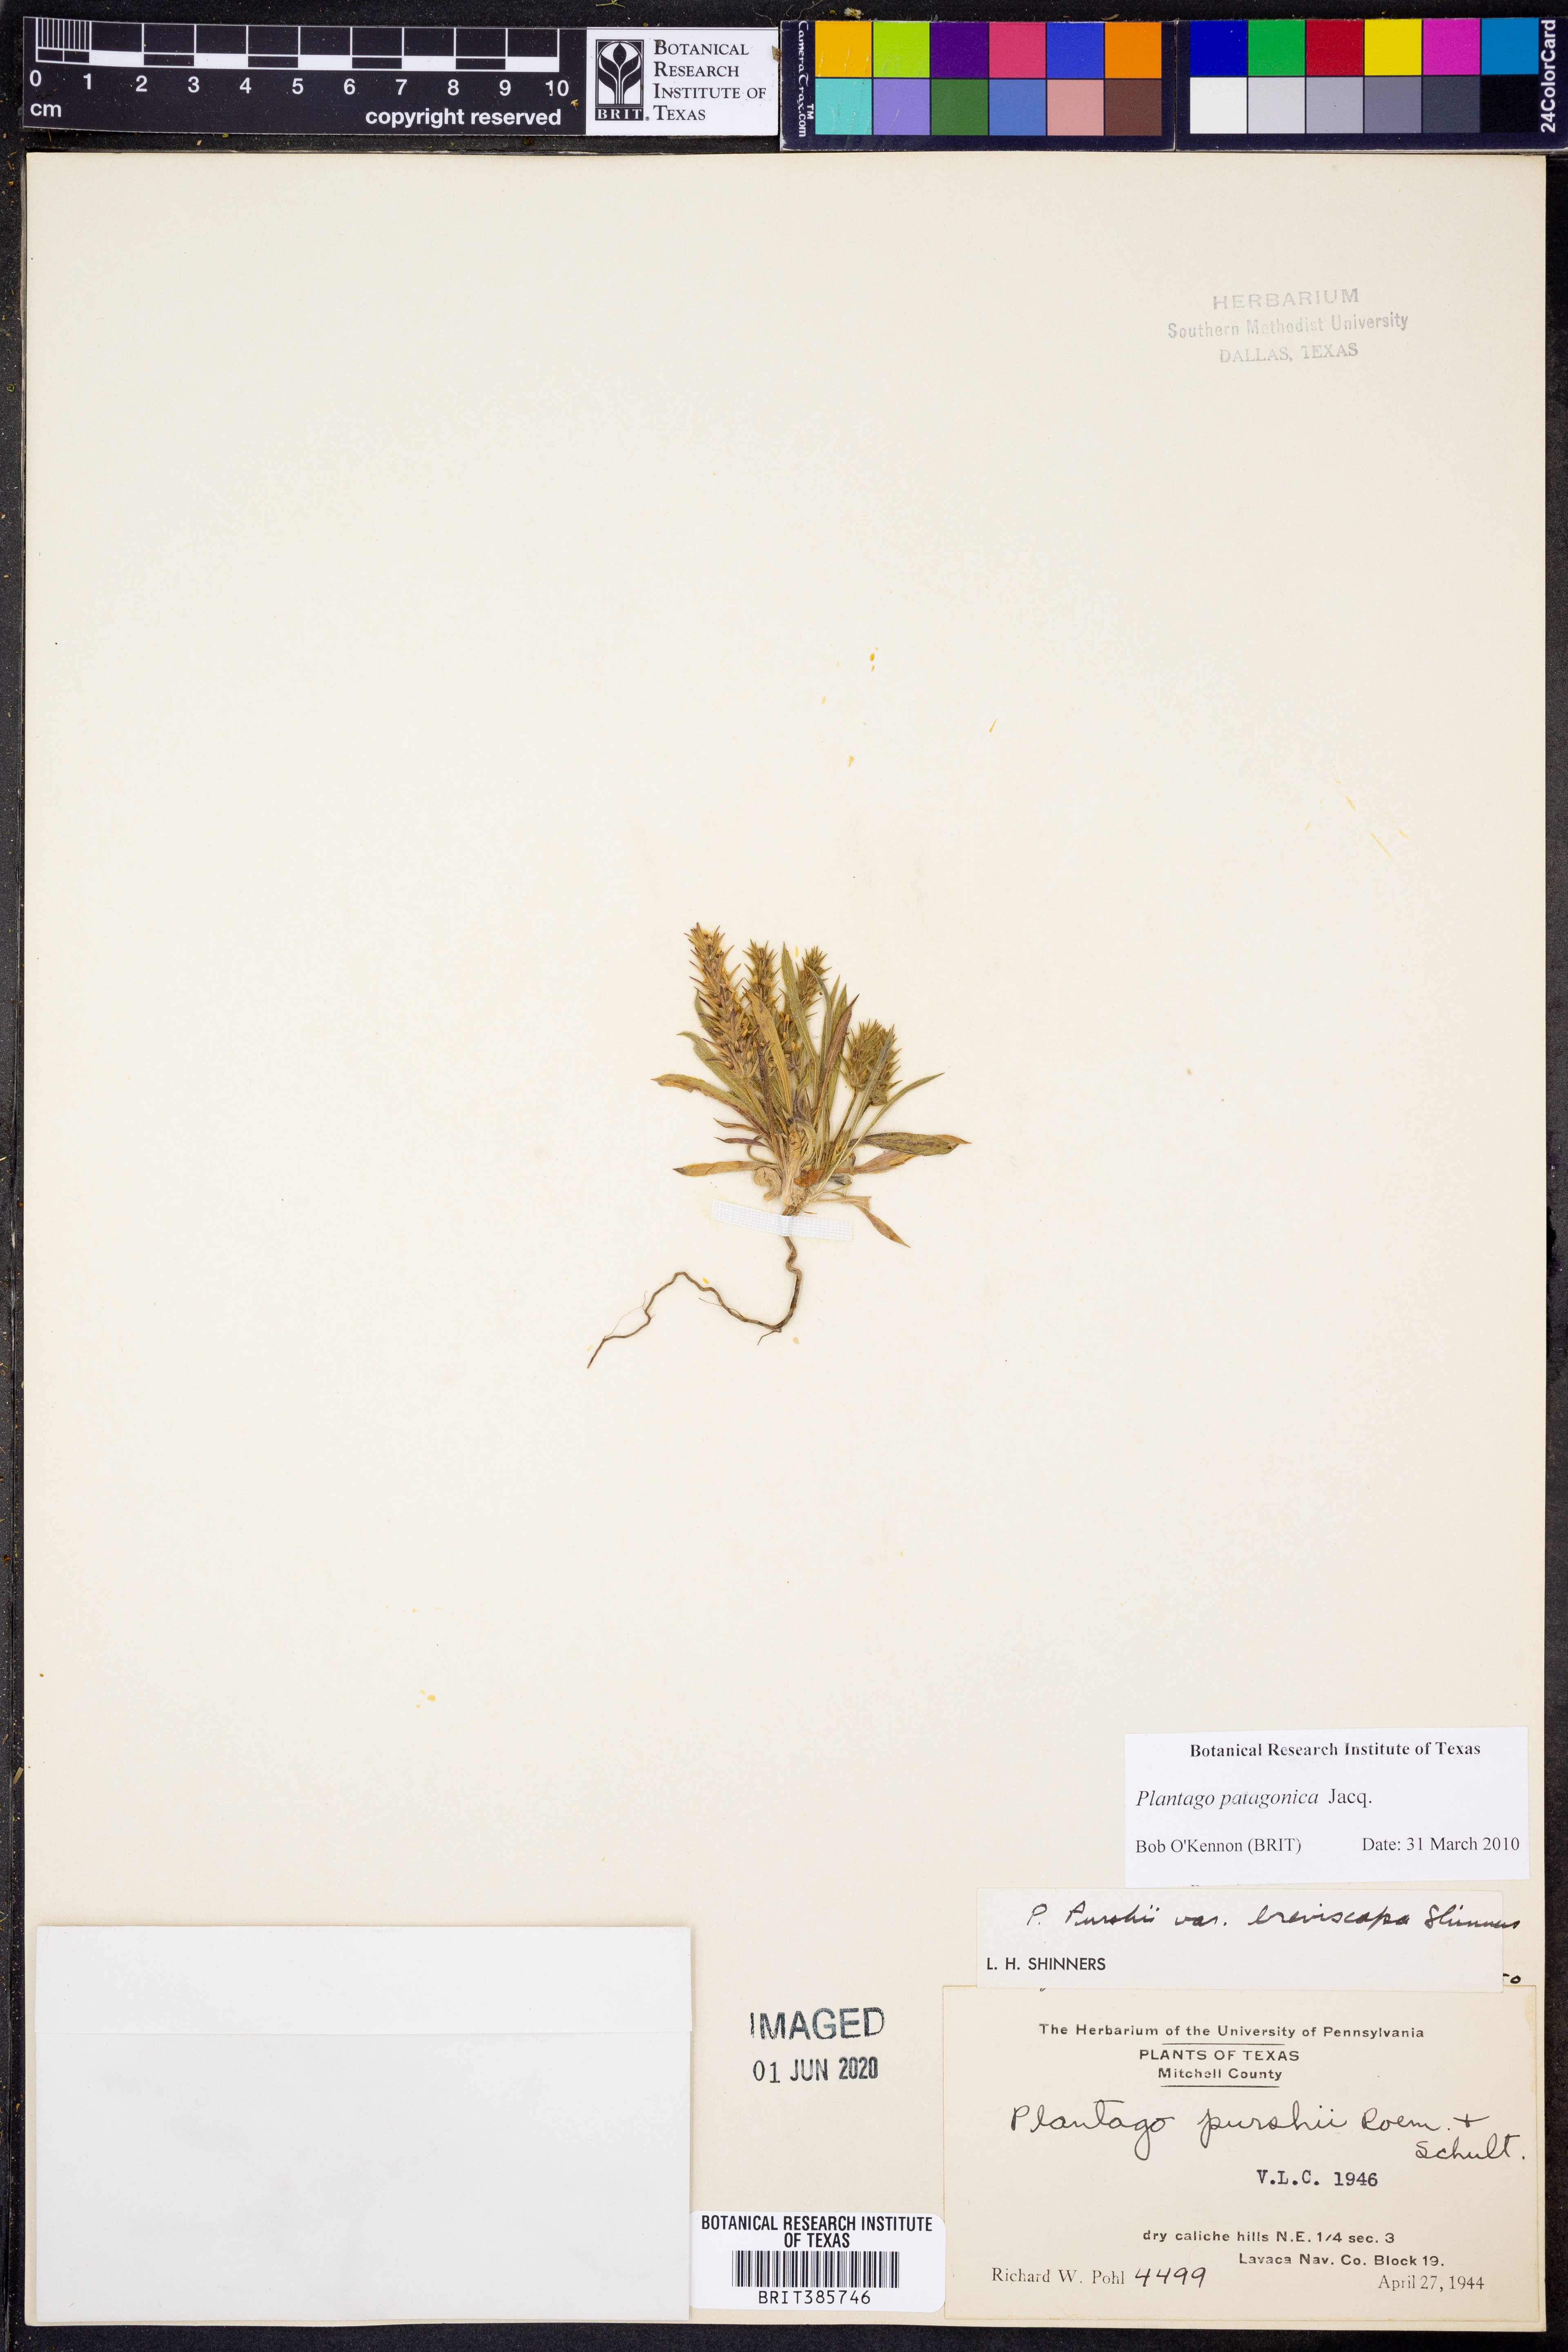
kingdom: Plantae
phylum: Tracheophyta
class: Magnoliopsida
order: Lamiales
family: Plantaginaceae
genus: Plantago
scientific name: Plantago patagonica
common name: Patagonia indian-wheat
